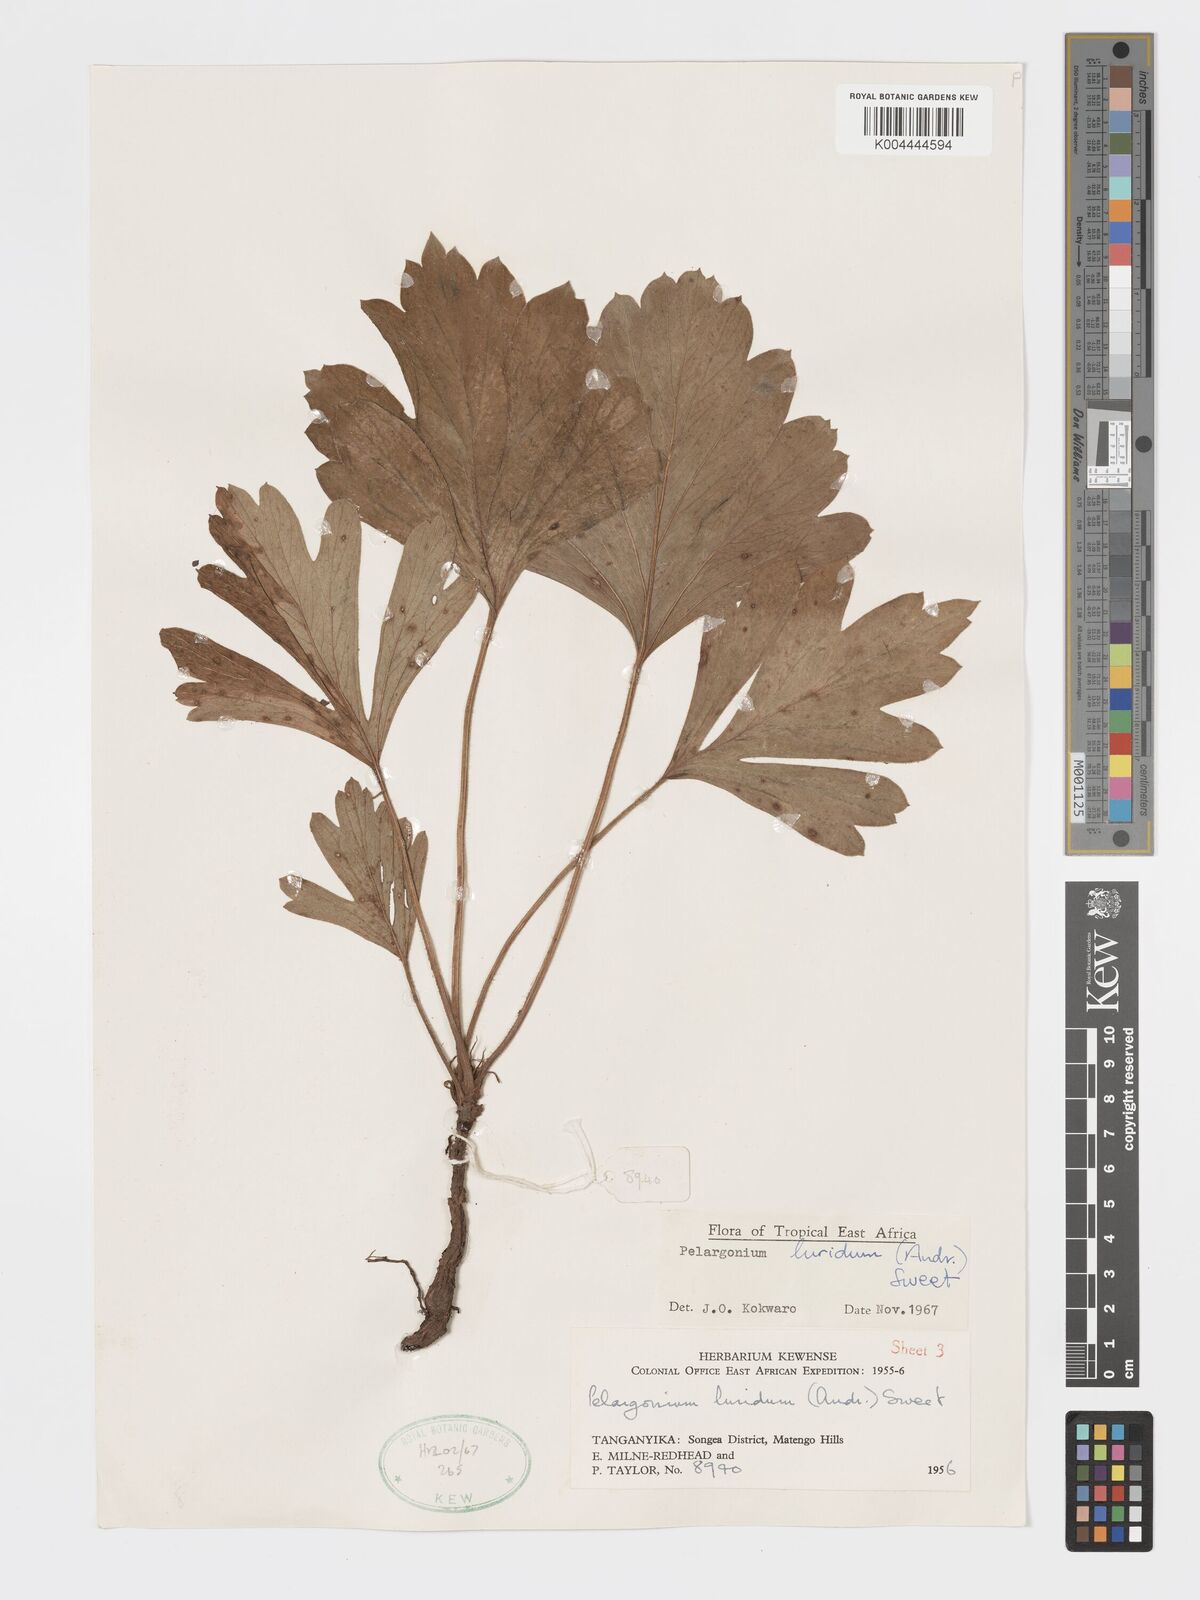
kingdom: Plantae
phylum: Tracheophyta
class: Magnoliopsida
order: Geraniales
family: Geraniaceae
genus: Pelargonium
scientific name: Pelargonium luridum
